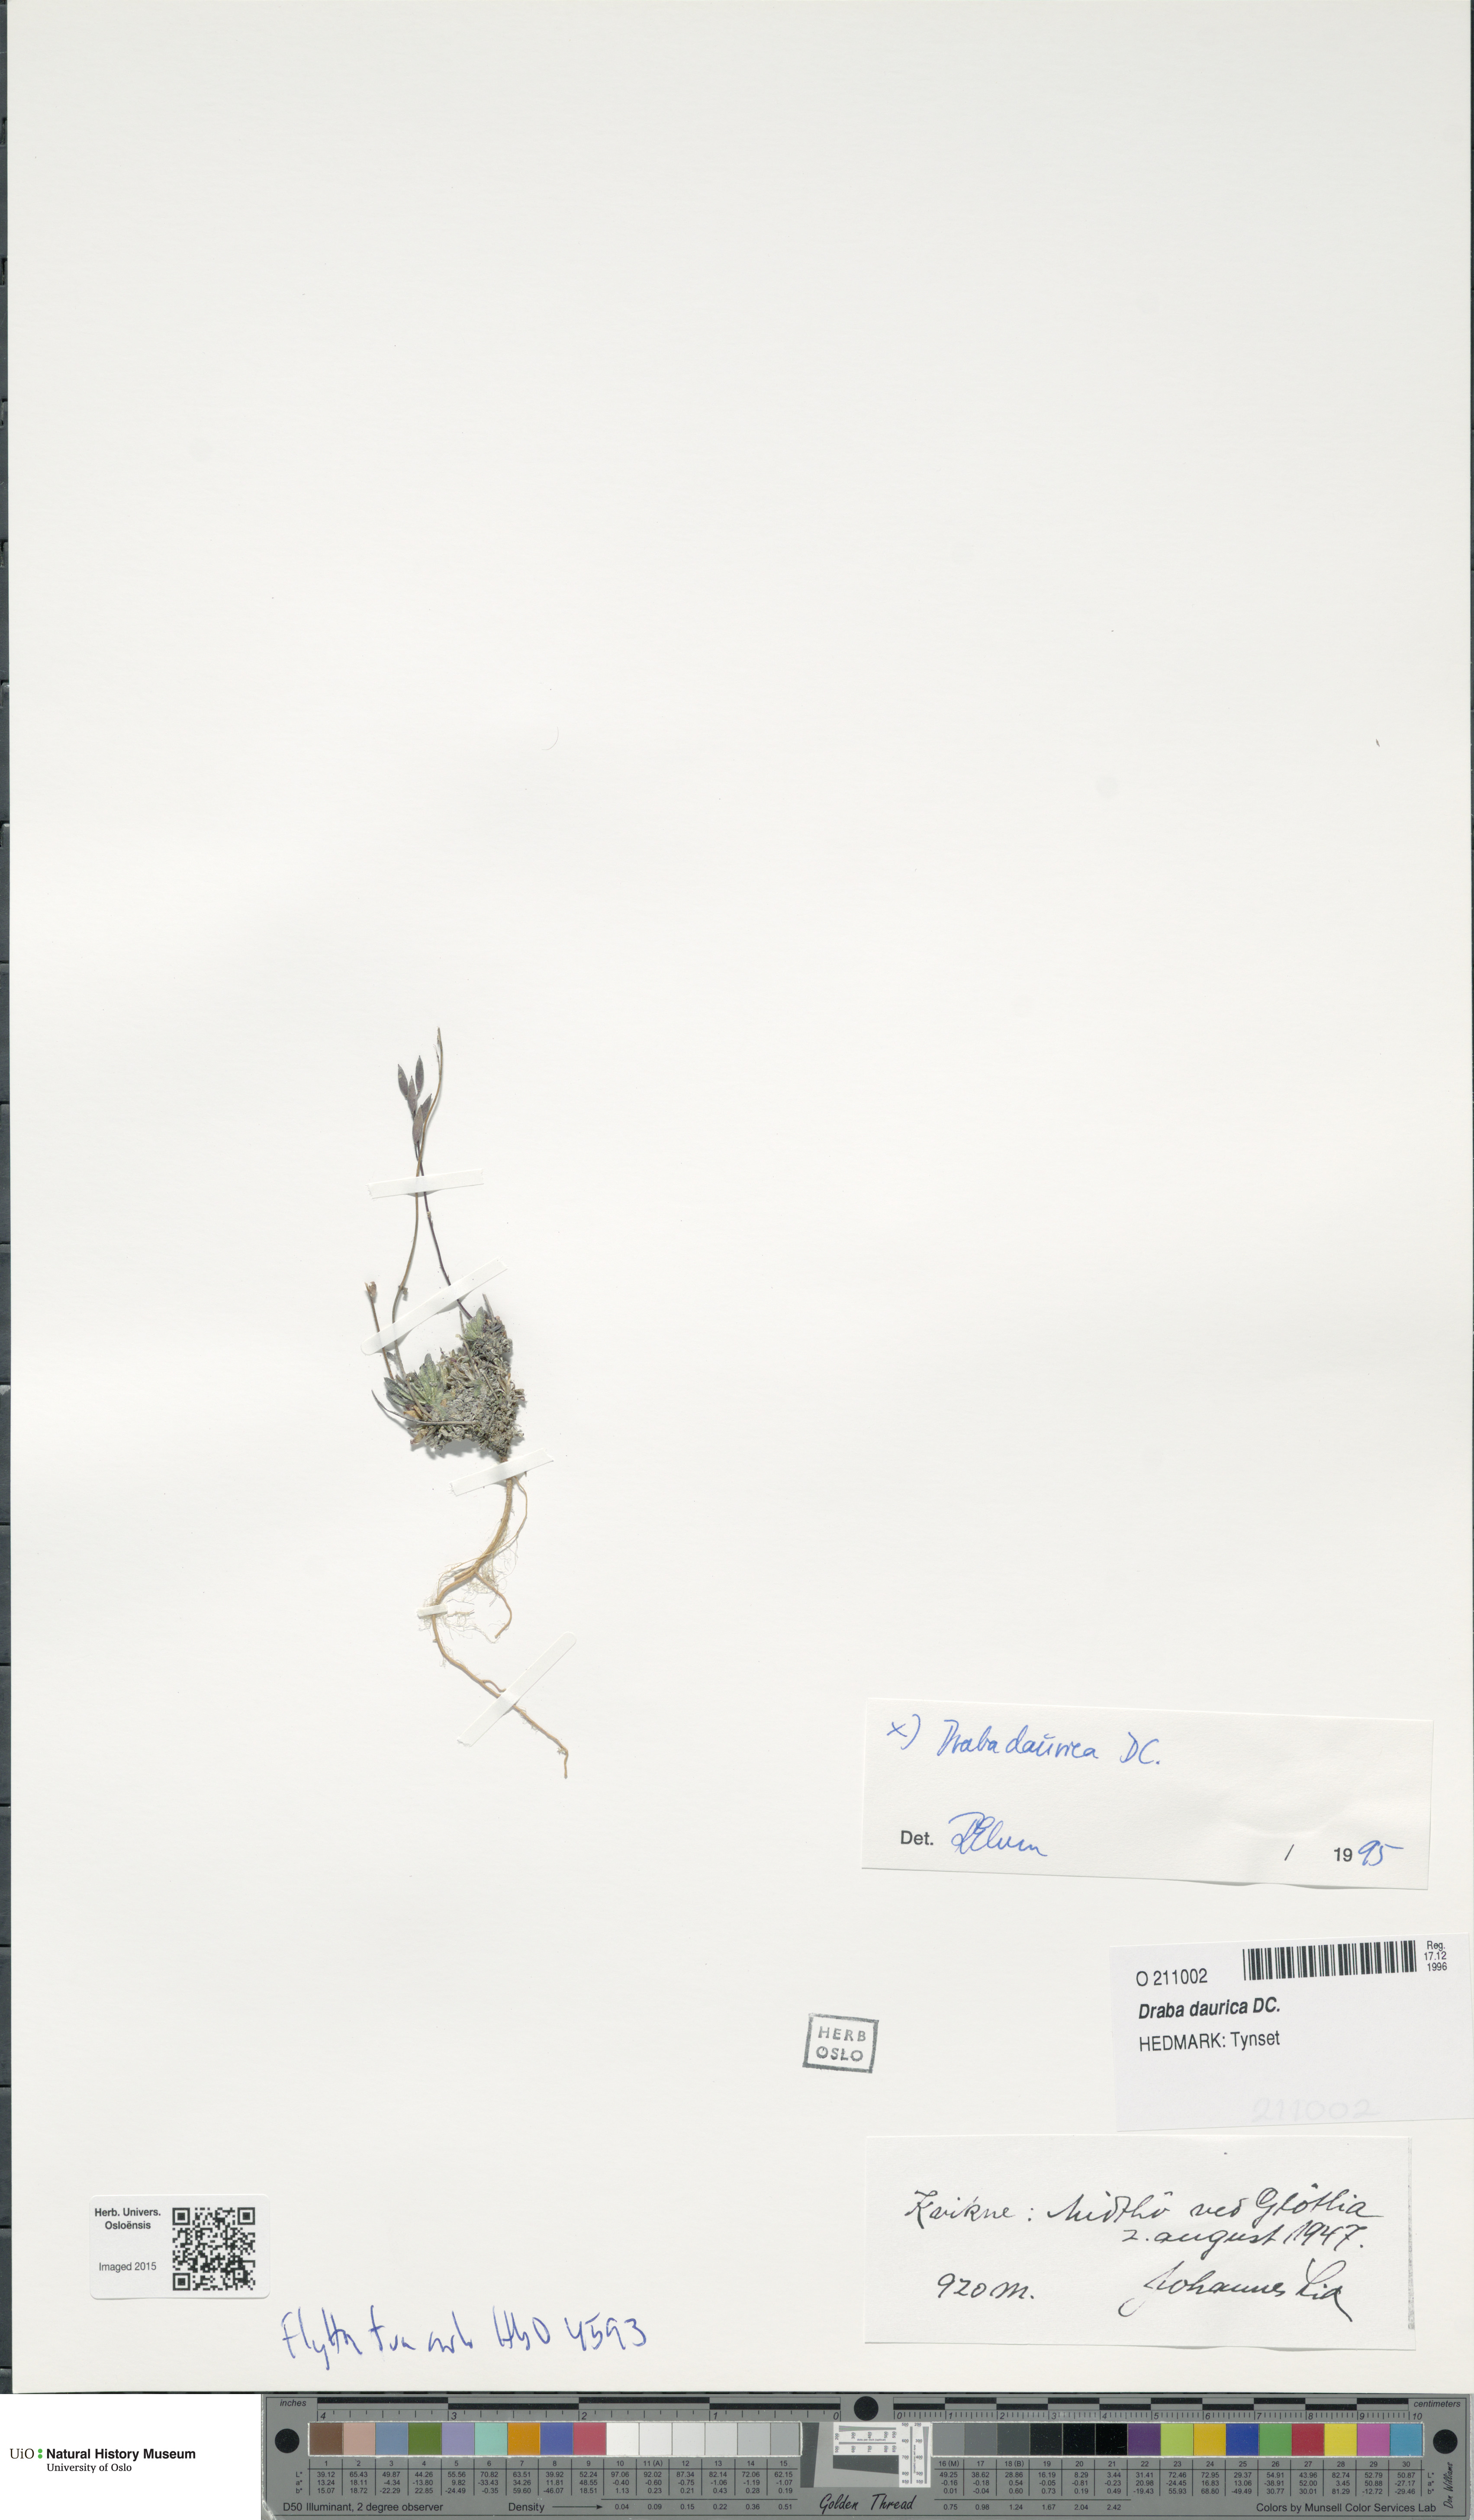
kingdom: Plantae
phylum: Tracheophyta
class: Magnoliopsida
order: Brassicales
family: Brassicaceae
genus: Draba
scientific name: Draba glabella
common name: Glaucous draba
